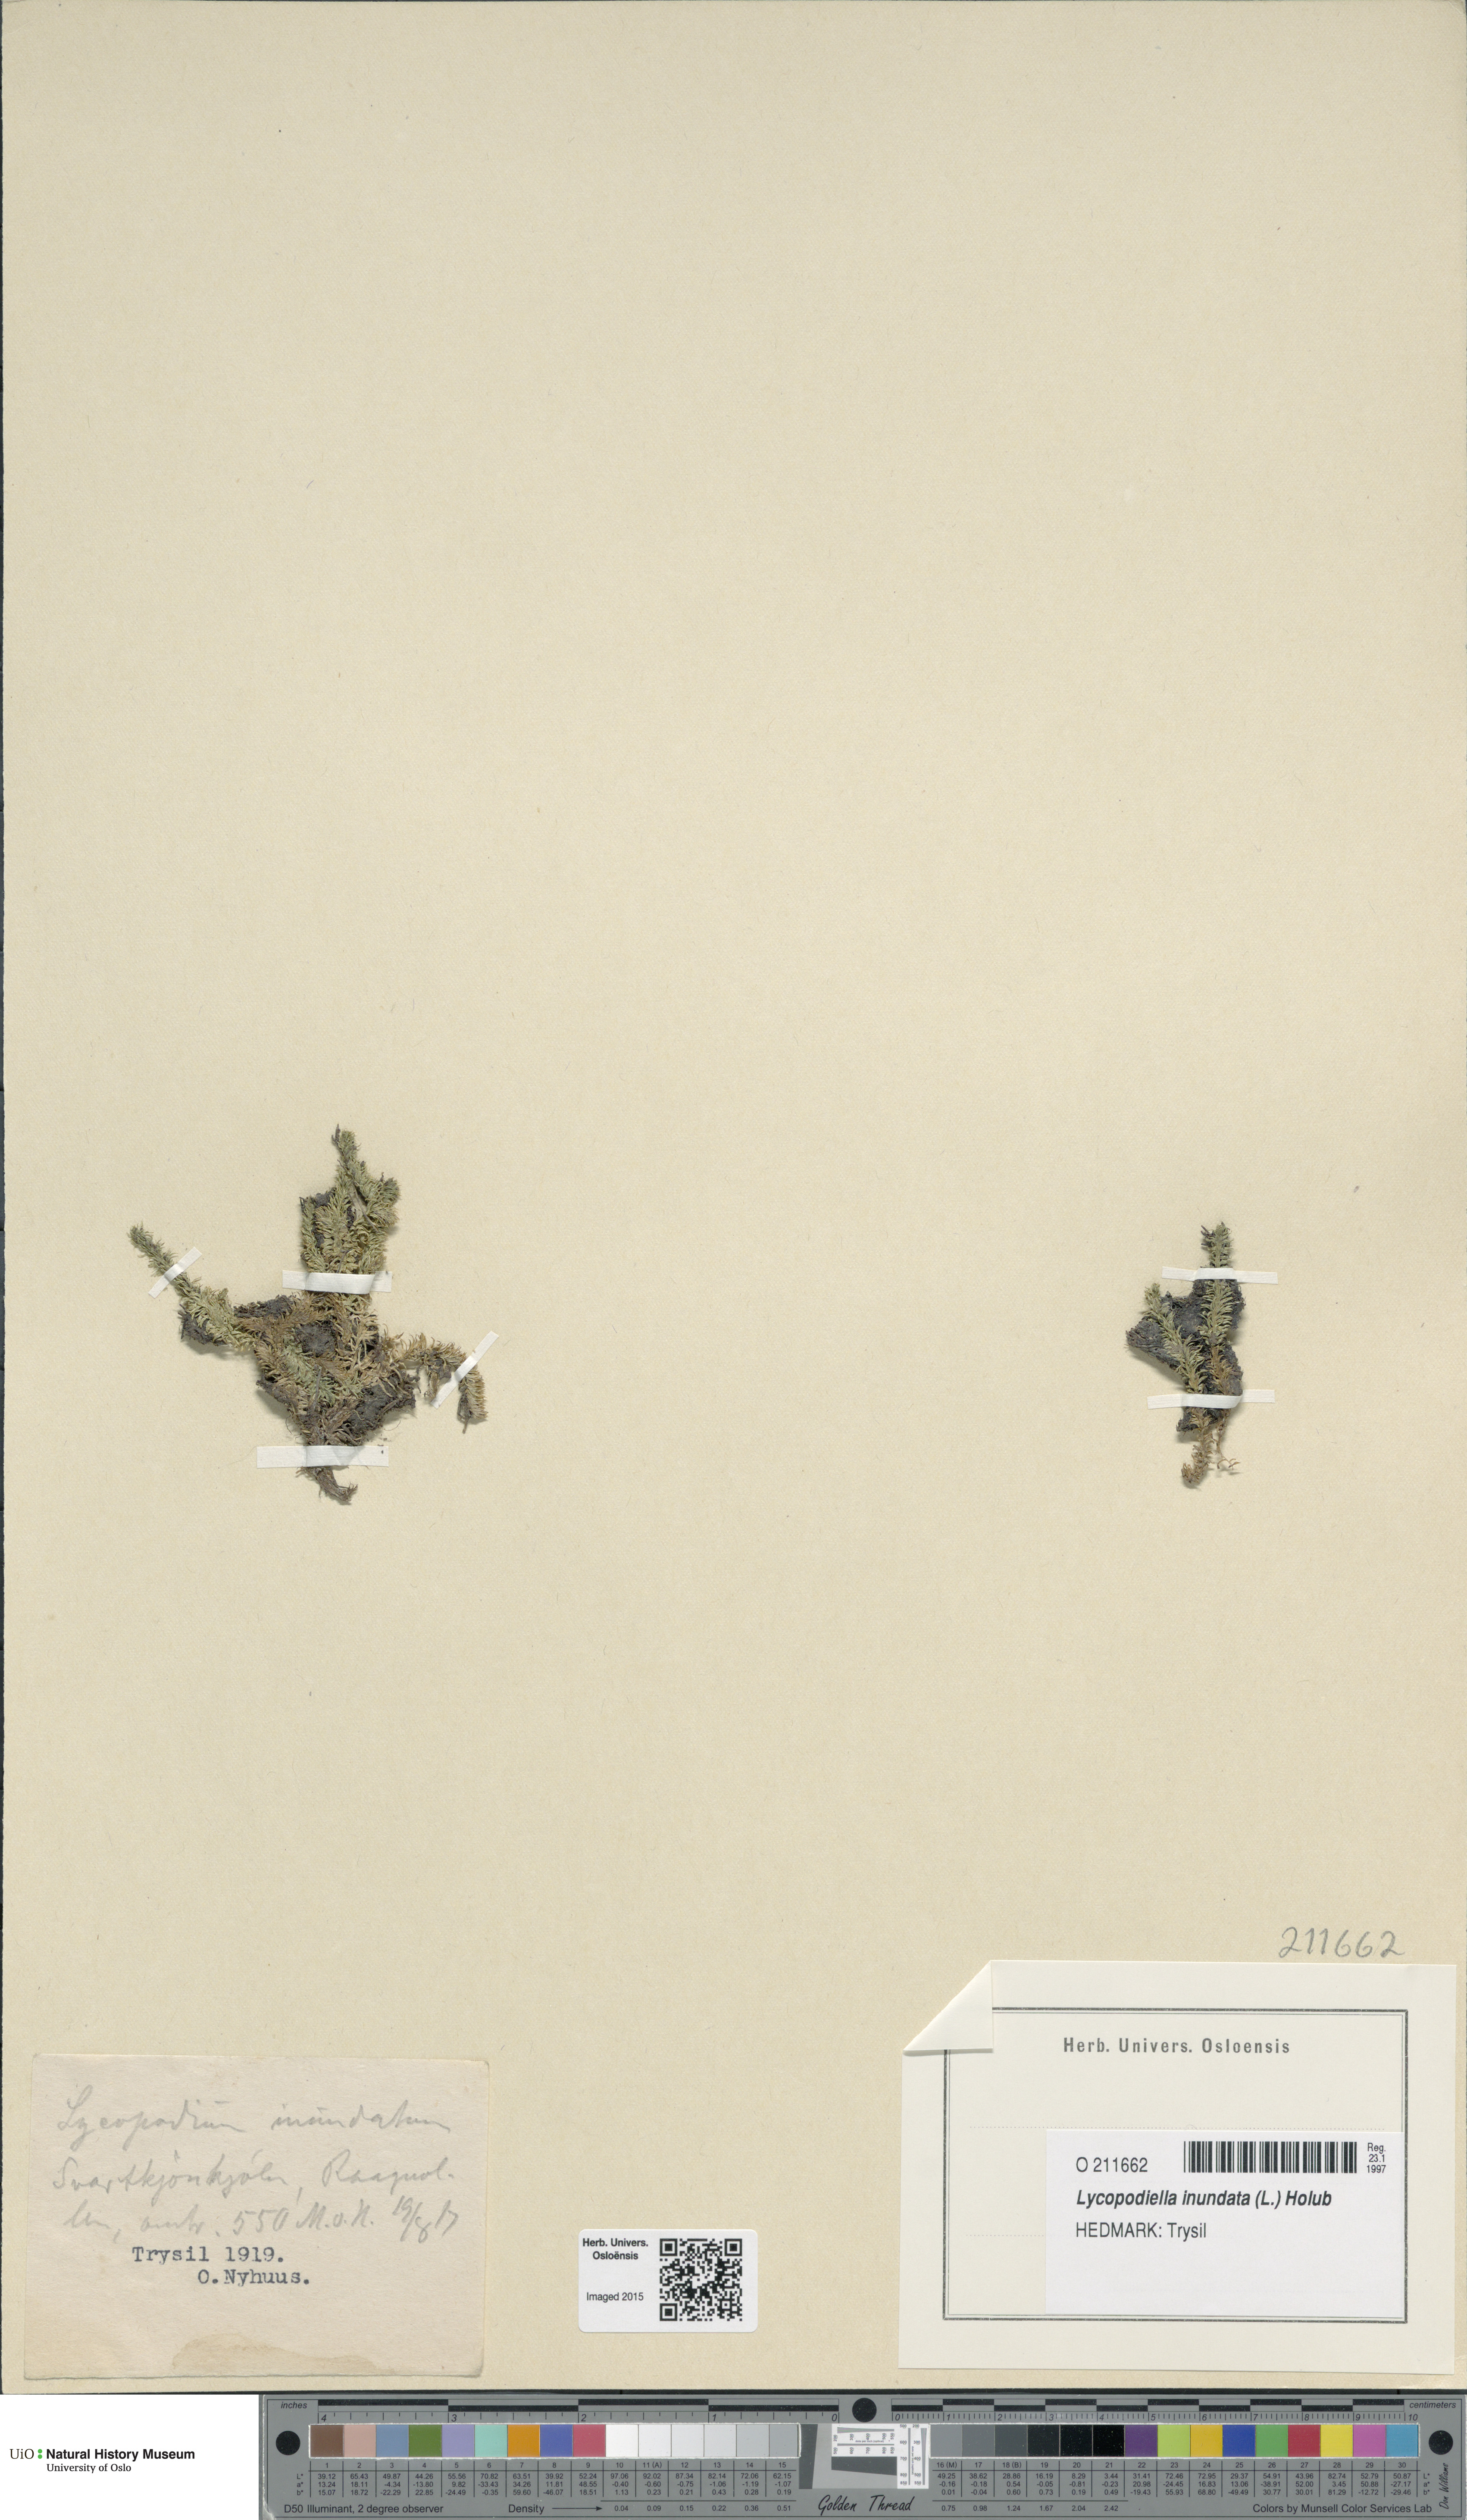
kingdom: Plantae
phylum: Tracheophyta
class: Lycopodiopsida
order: Lycopodiales
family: Lycopodiaceae
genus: Lycopodiella
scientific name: Lycopodiella inundata
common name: Marsh clubmoss
